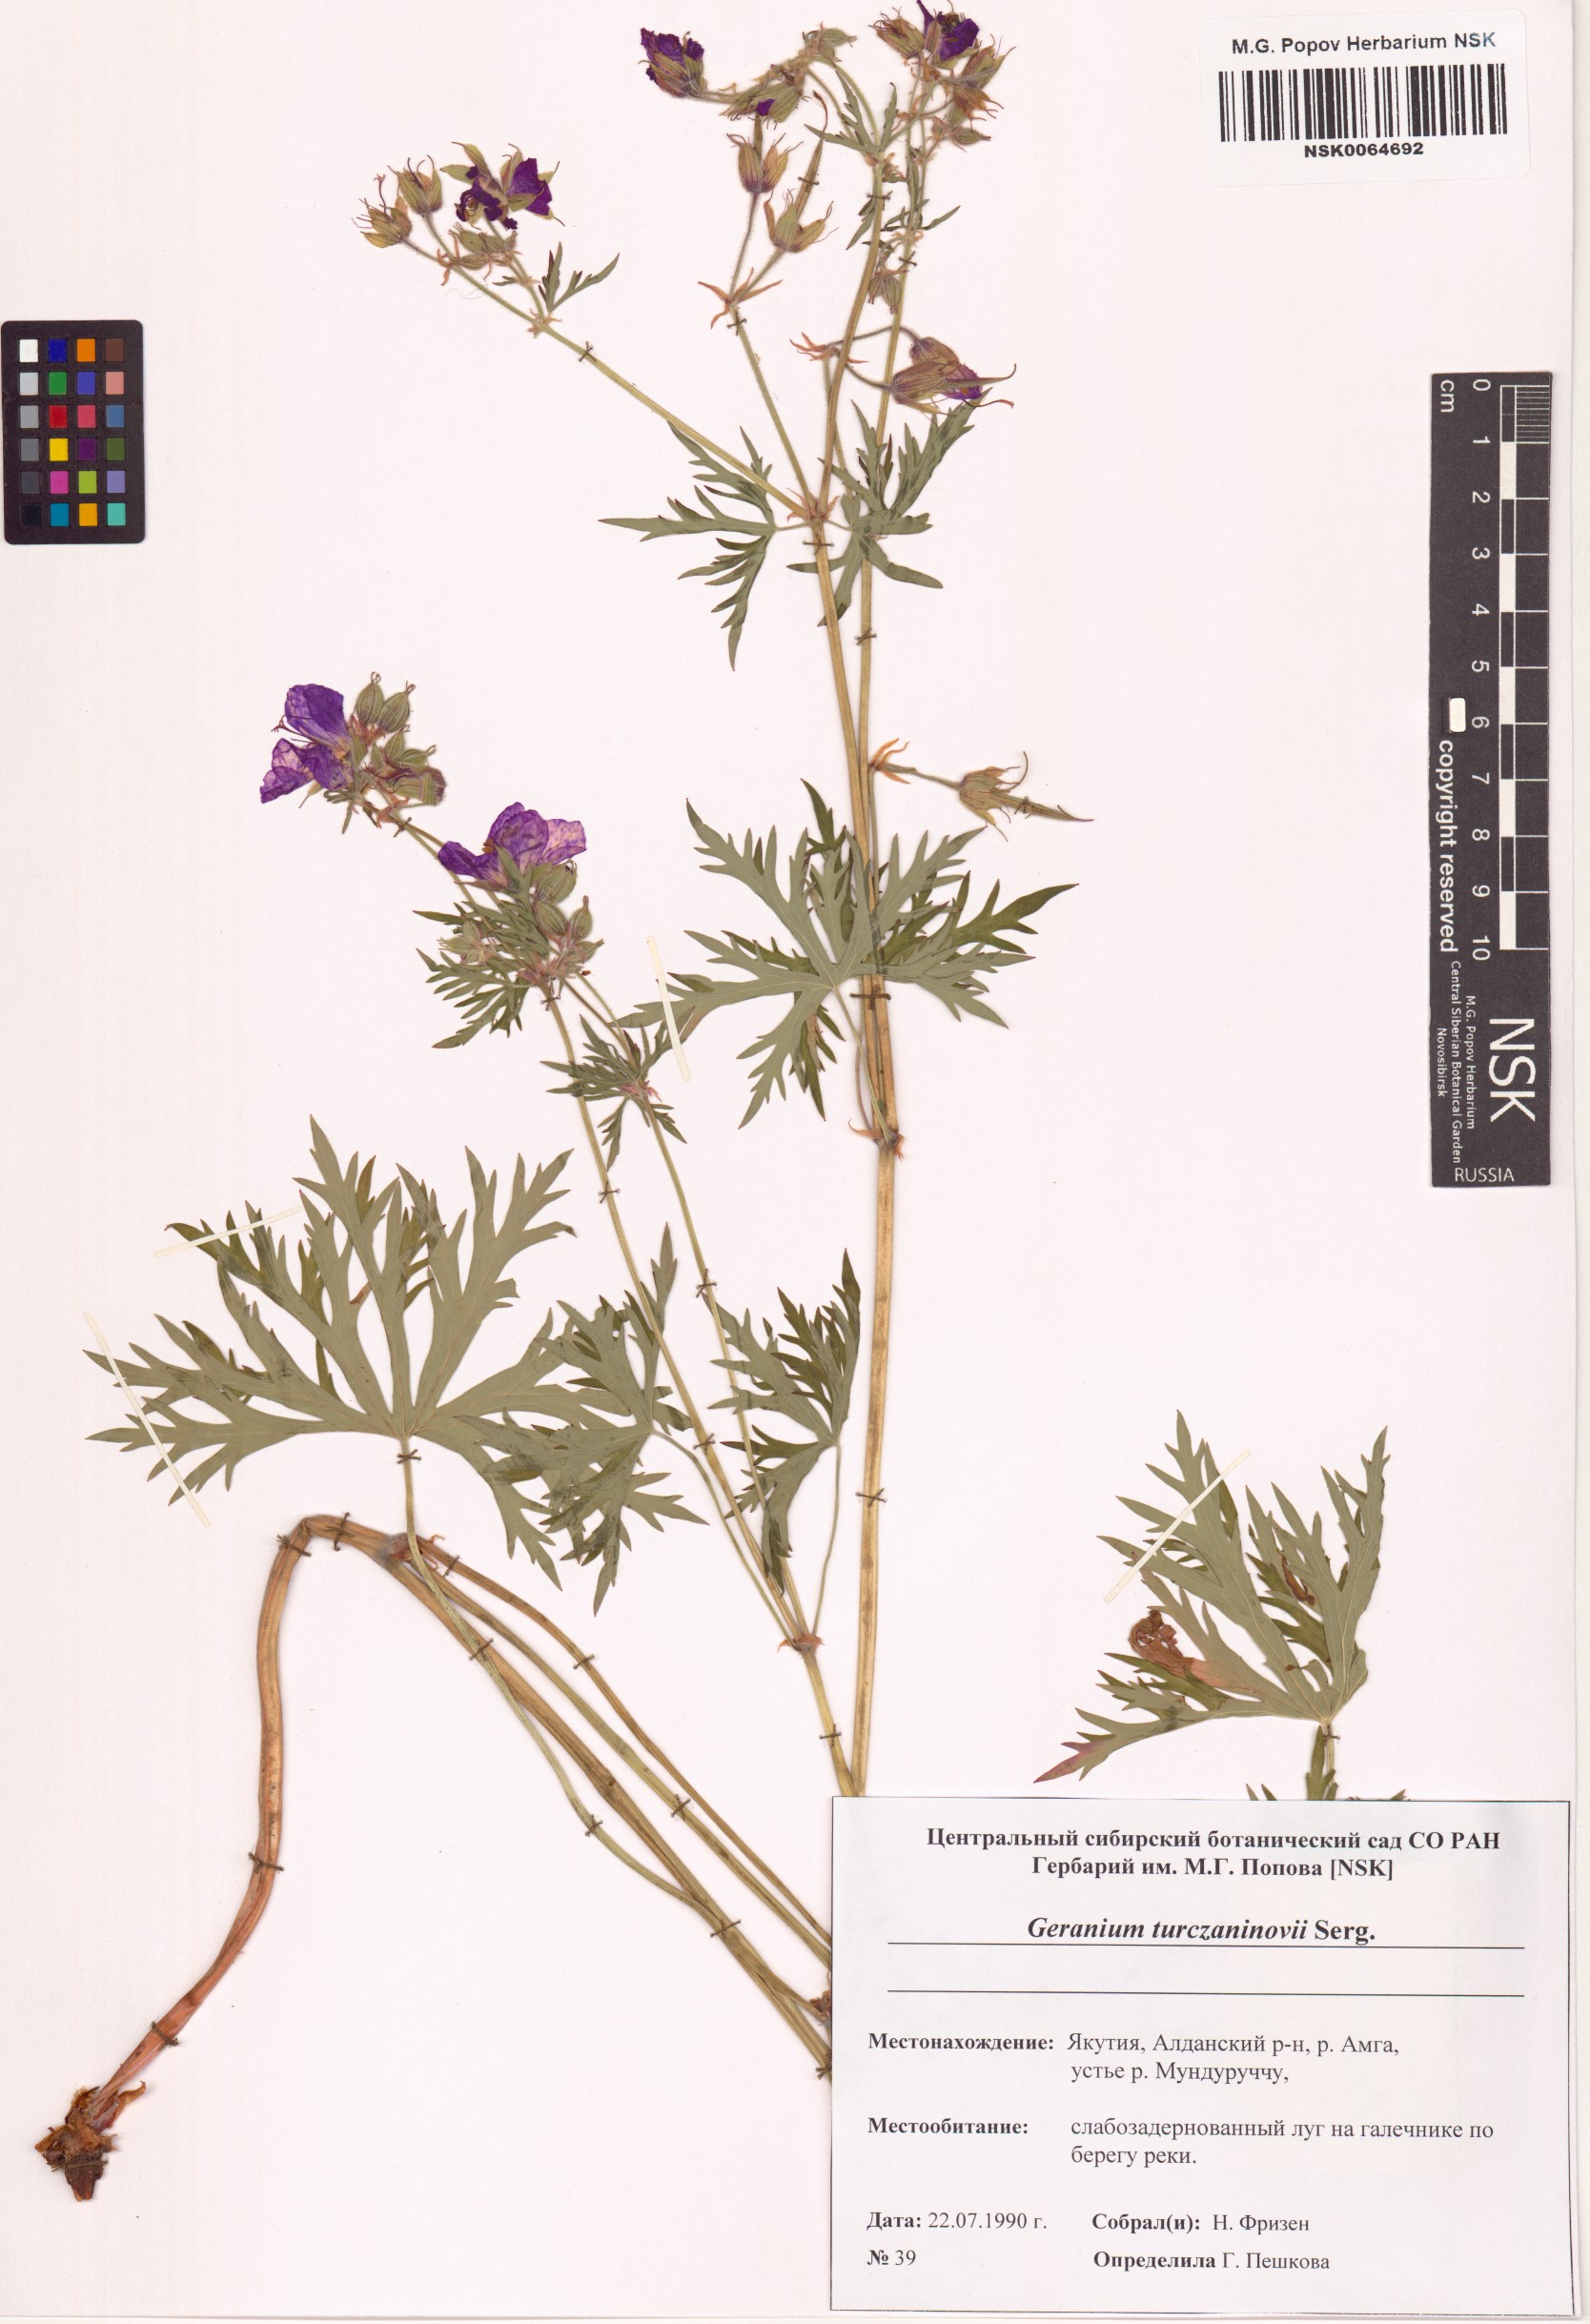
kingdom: Plantae
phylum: Tracheophyta
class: Magnoliopsida
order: Geraniales
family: Geraniaceae
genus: Geranium
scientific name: Geranium pratense
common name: Meadow crane's-bill
